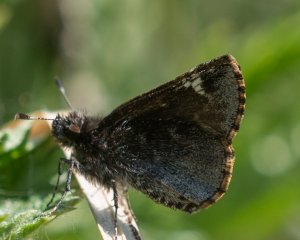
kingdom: Animalia
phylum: Arthropoda
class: Insecta
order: Lepidoptera
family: Hesperiidae
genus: Mastor
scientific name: Mastor vialis
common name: Common Roadside-Skipper
